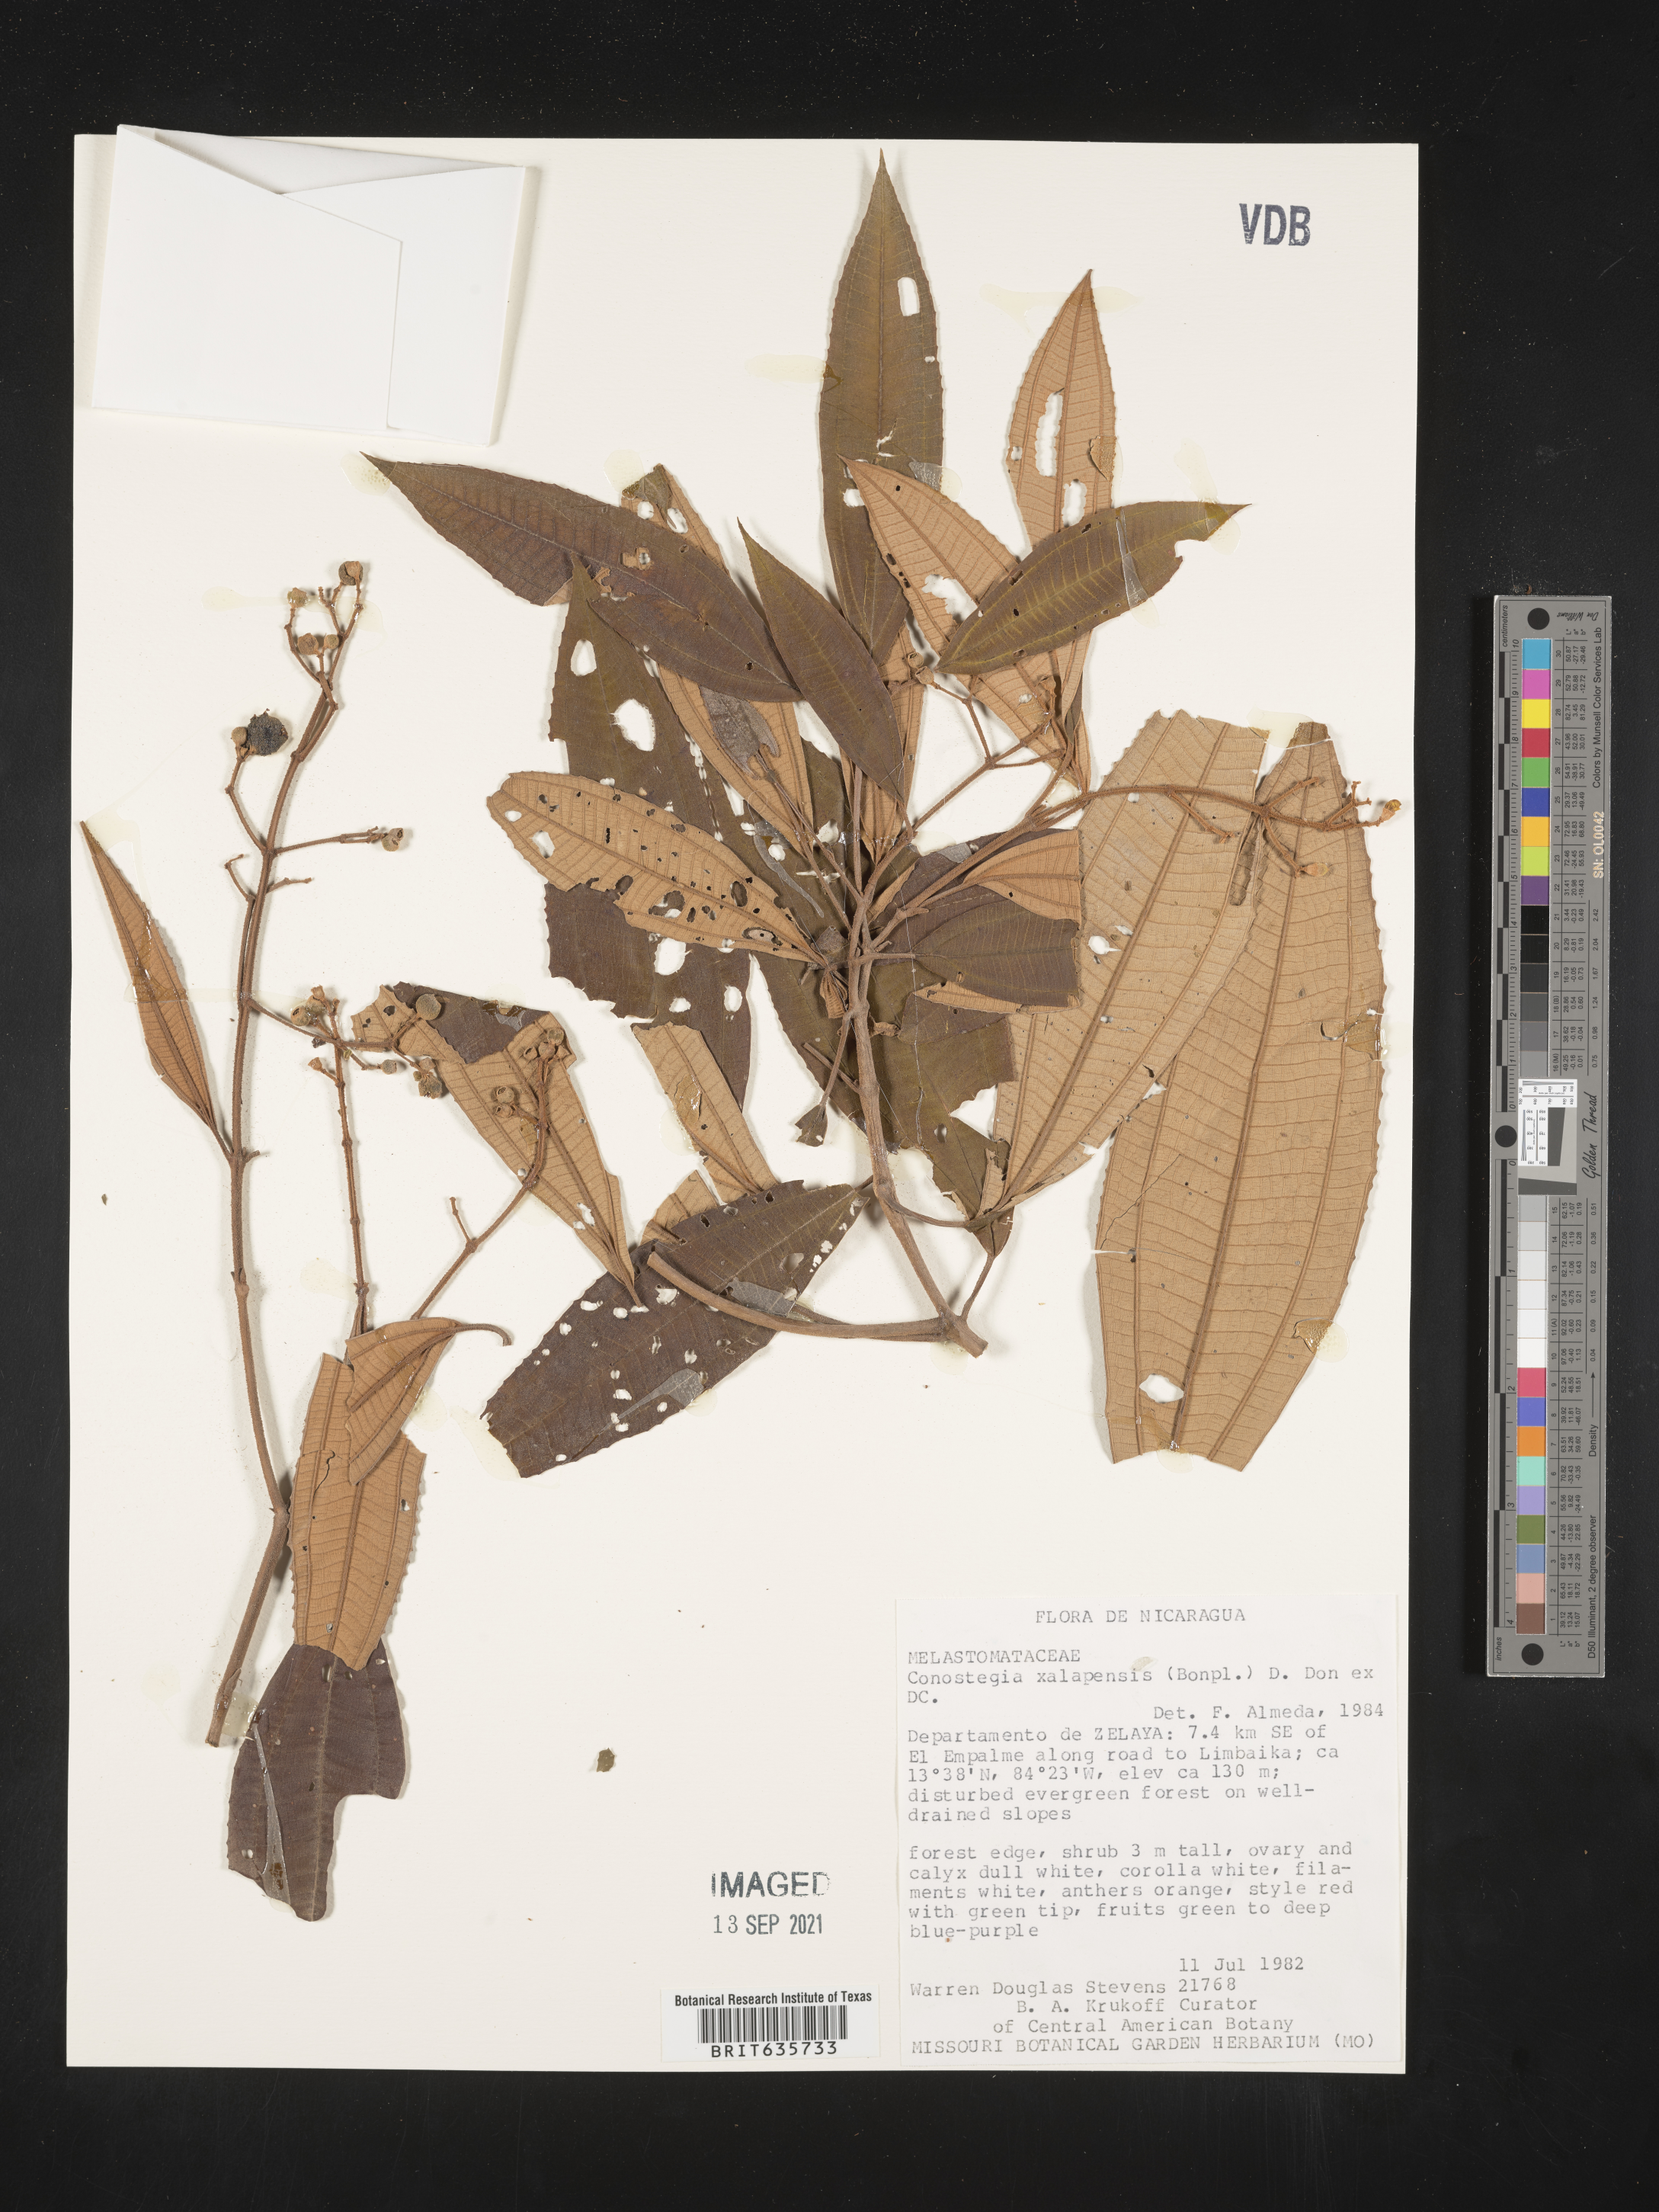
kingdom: Plantae
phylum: Tracheophyta
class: Magnoliopsida
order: Myrtales
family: Melastomataceae
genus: Miconia
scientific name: Miconia
